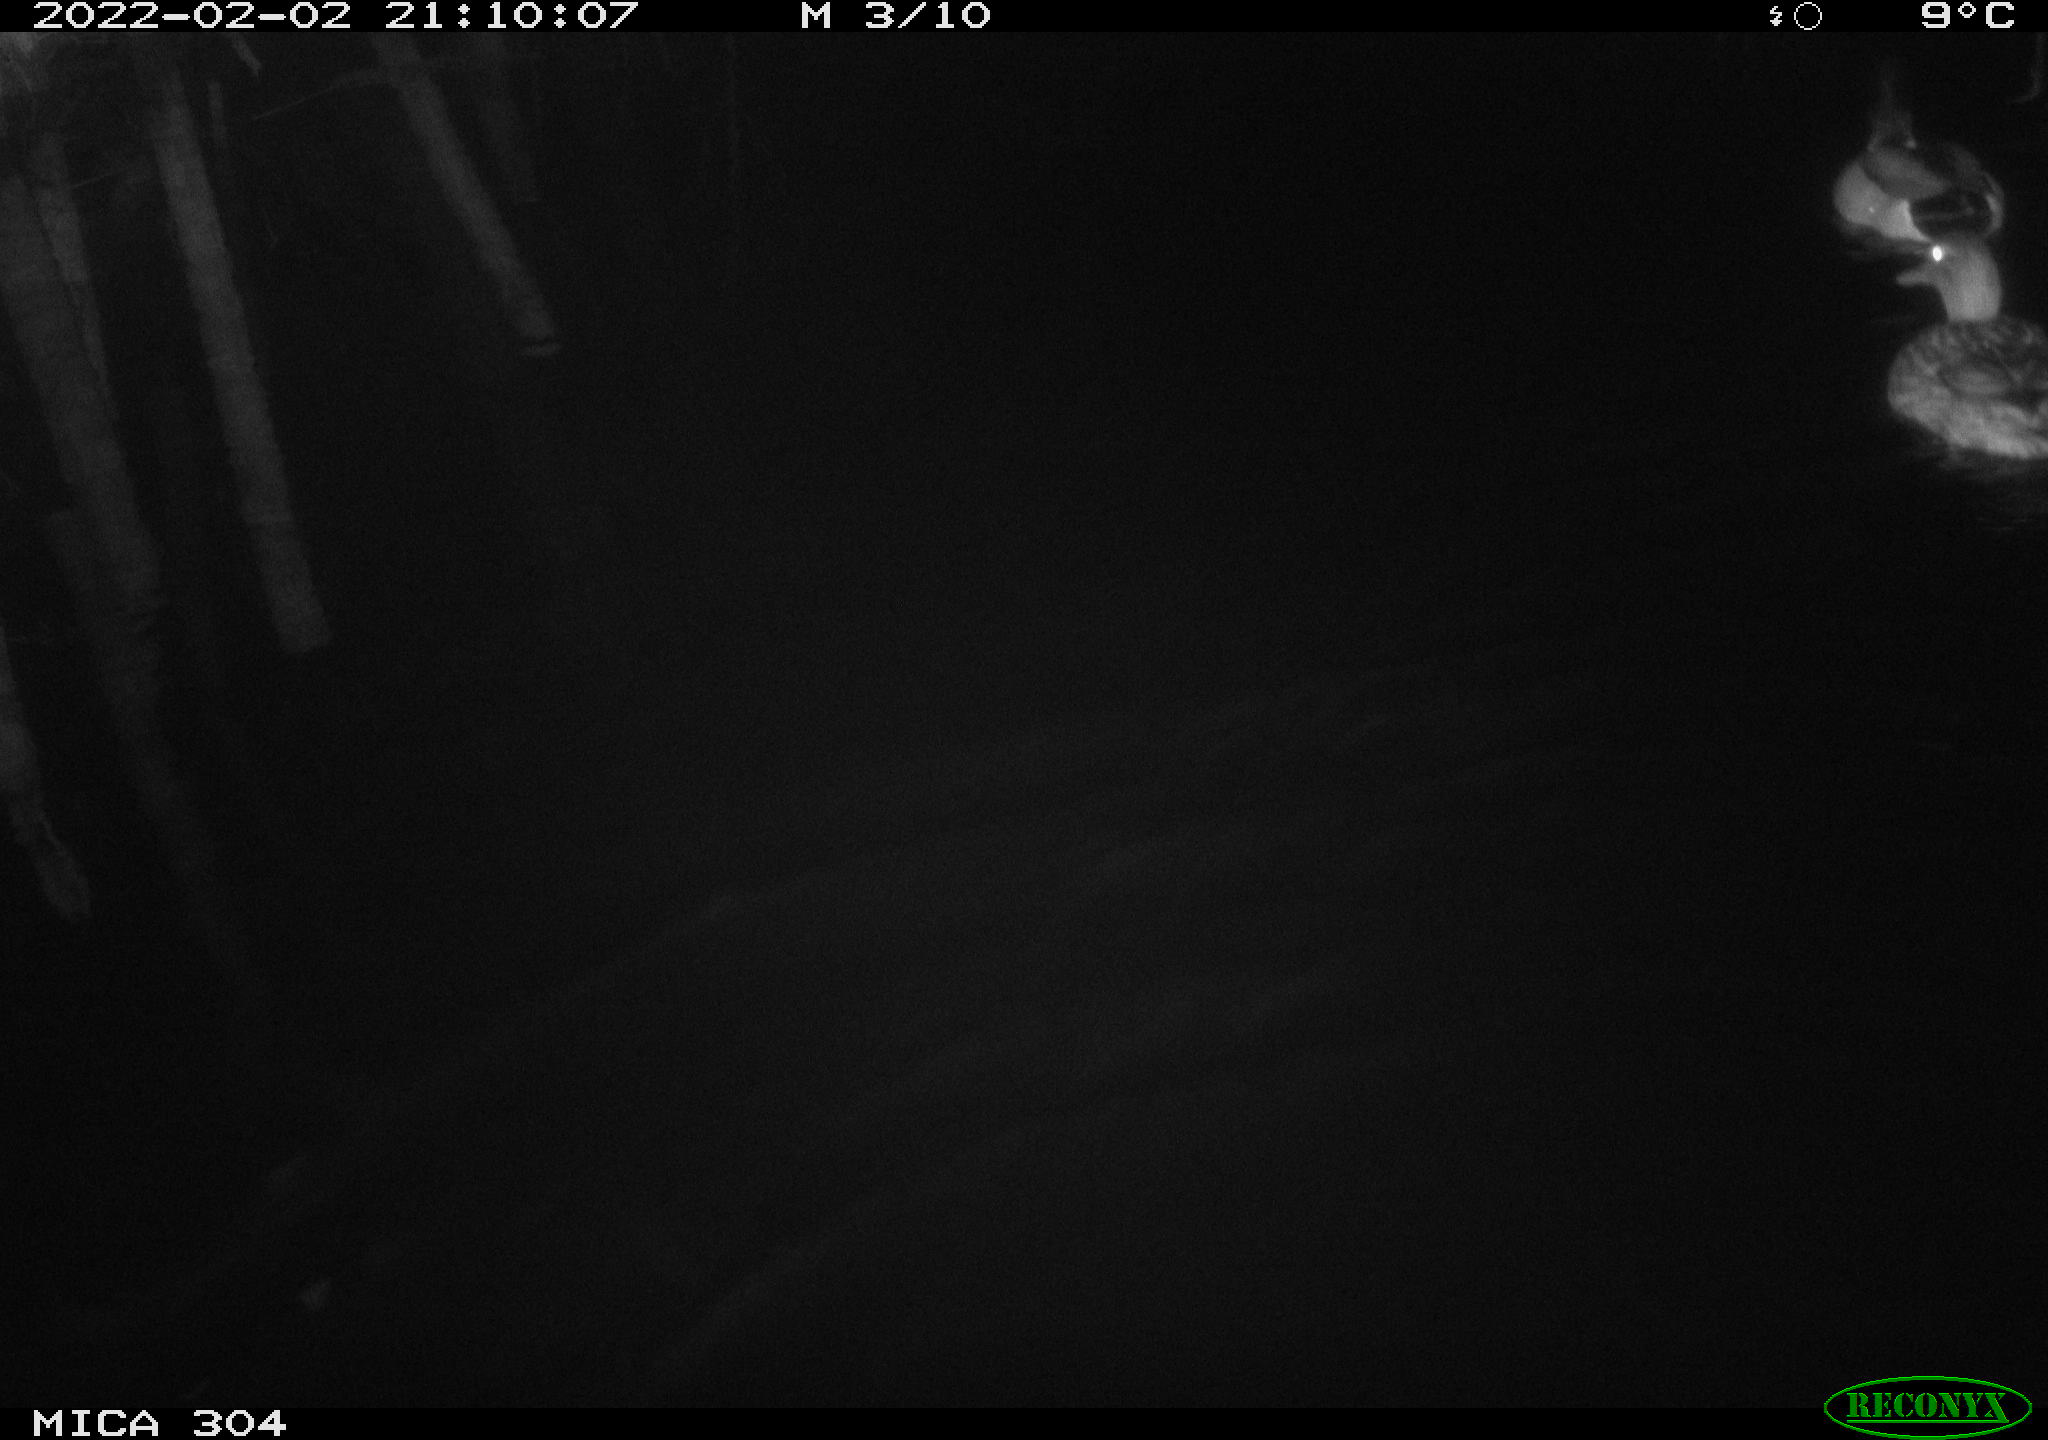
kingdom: Animalia
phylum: Chordata
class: Aves
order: Anseriformes
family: Anatidae
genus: Anas
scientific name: Anas
